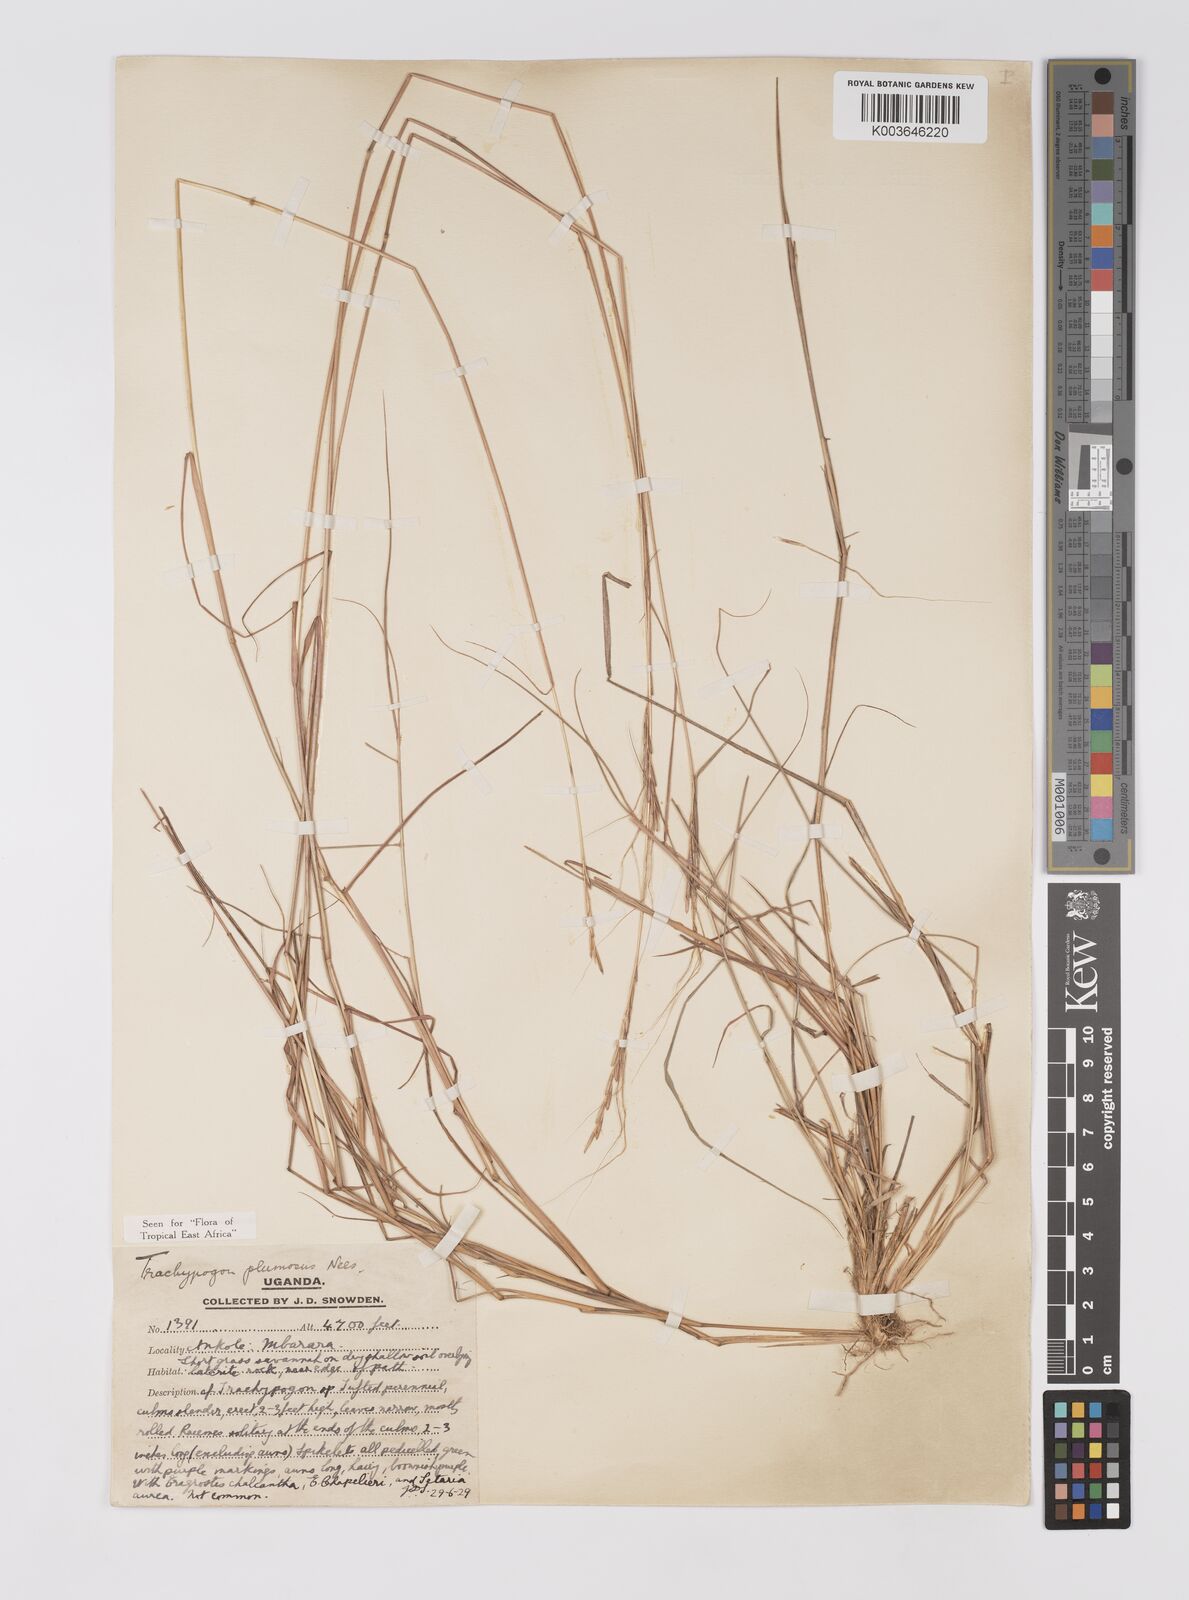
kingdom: Plantae
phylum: Tracheophyta
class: Liliopsida
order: Poales
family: Poaceae
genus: Trachypogon
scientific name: Trachypogon spicatus
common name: Crinkle-awn
